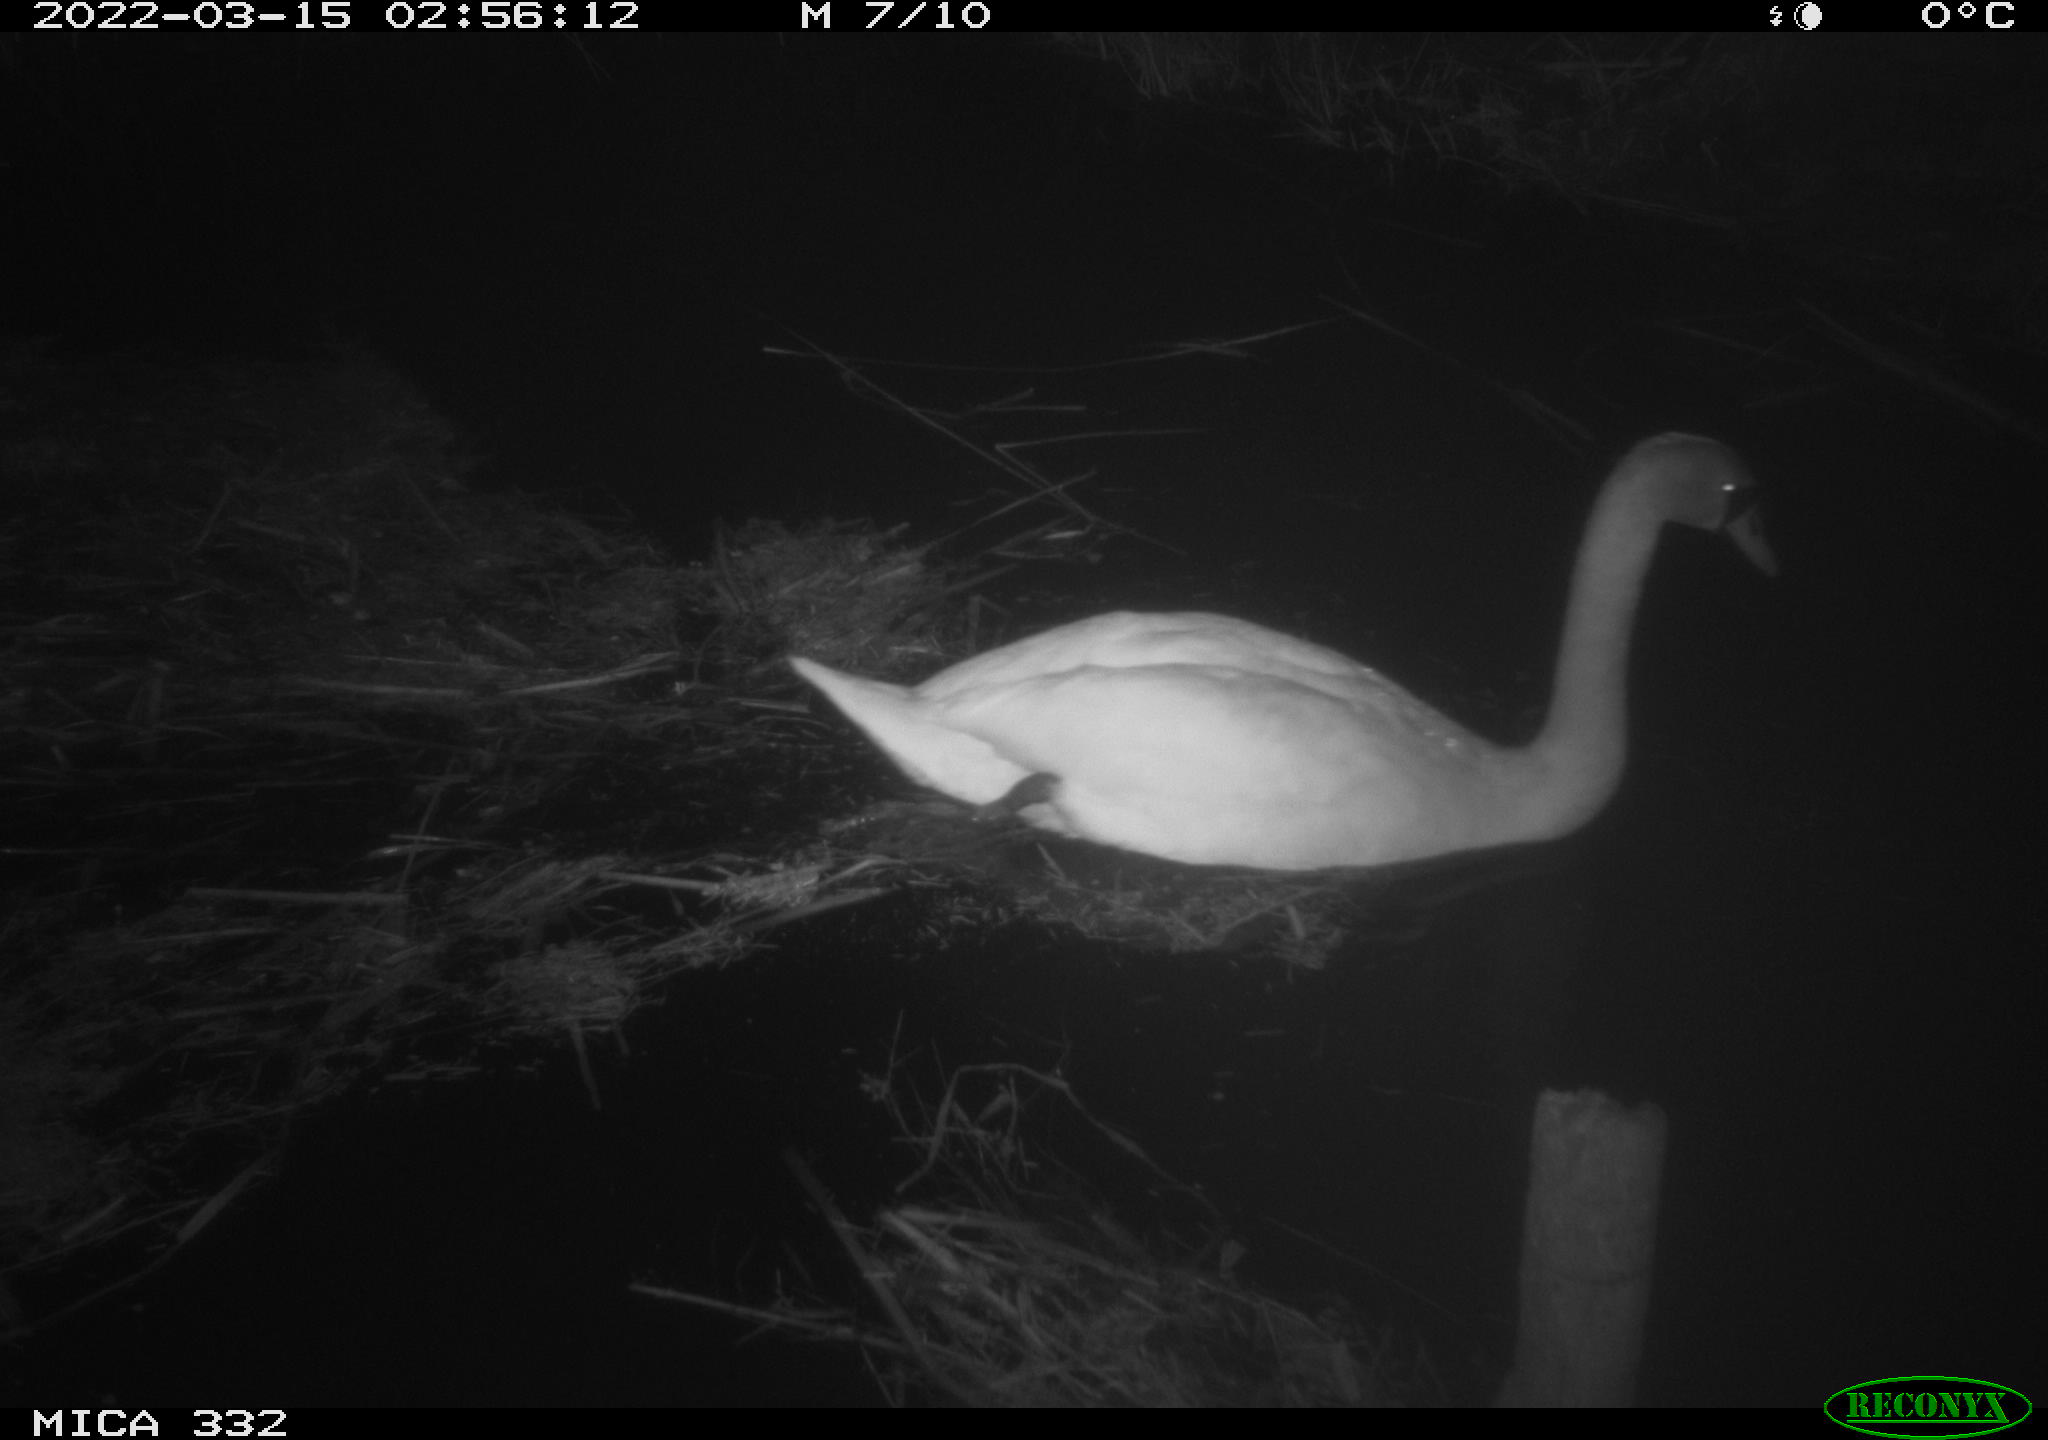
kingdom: Animalia
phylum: Chordata
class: Aves
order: Anseriformes
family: Anatidae
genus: Cygnus
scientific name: Cygnus olor
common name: Mute swan
